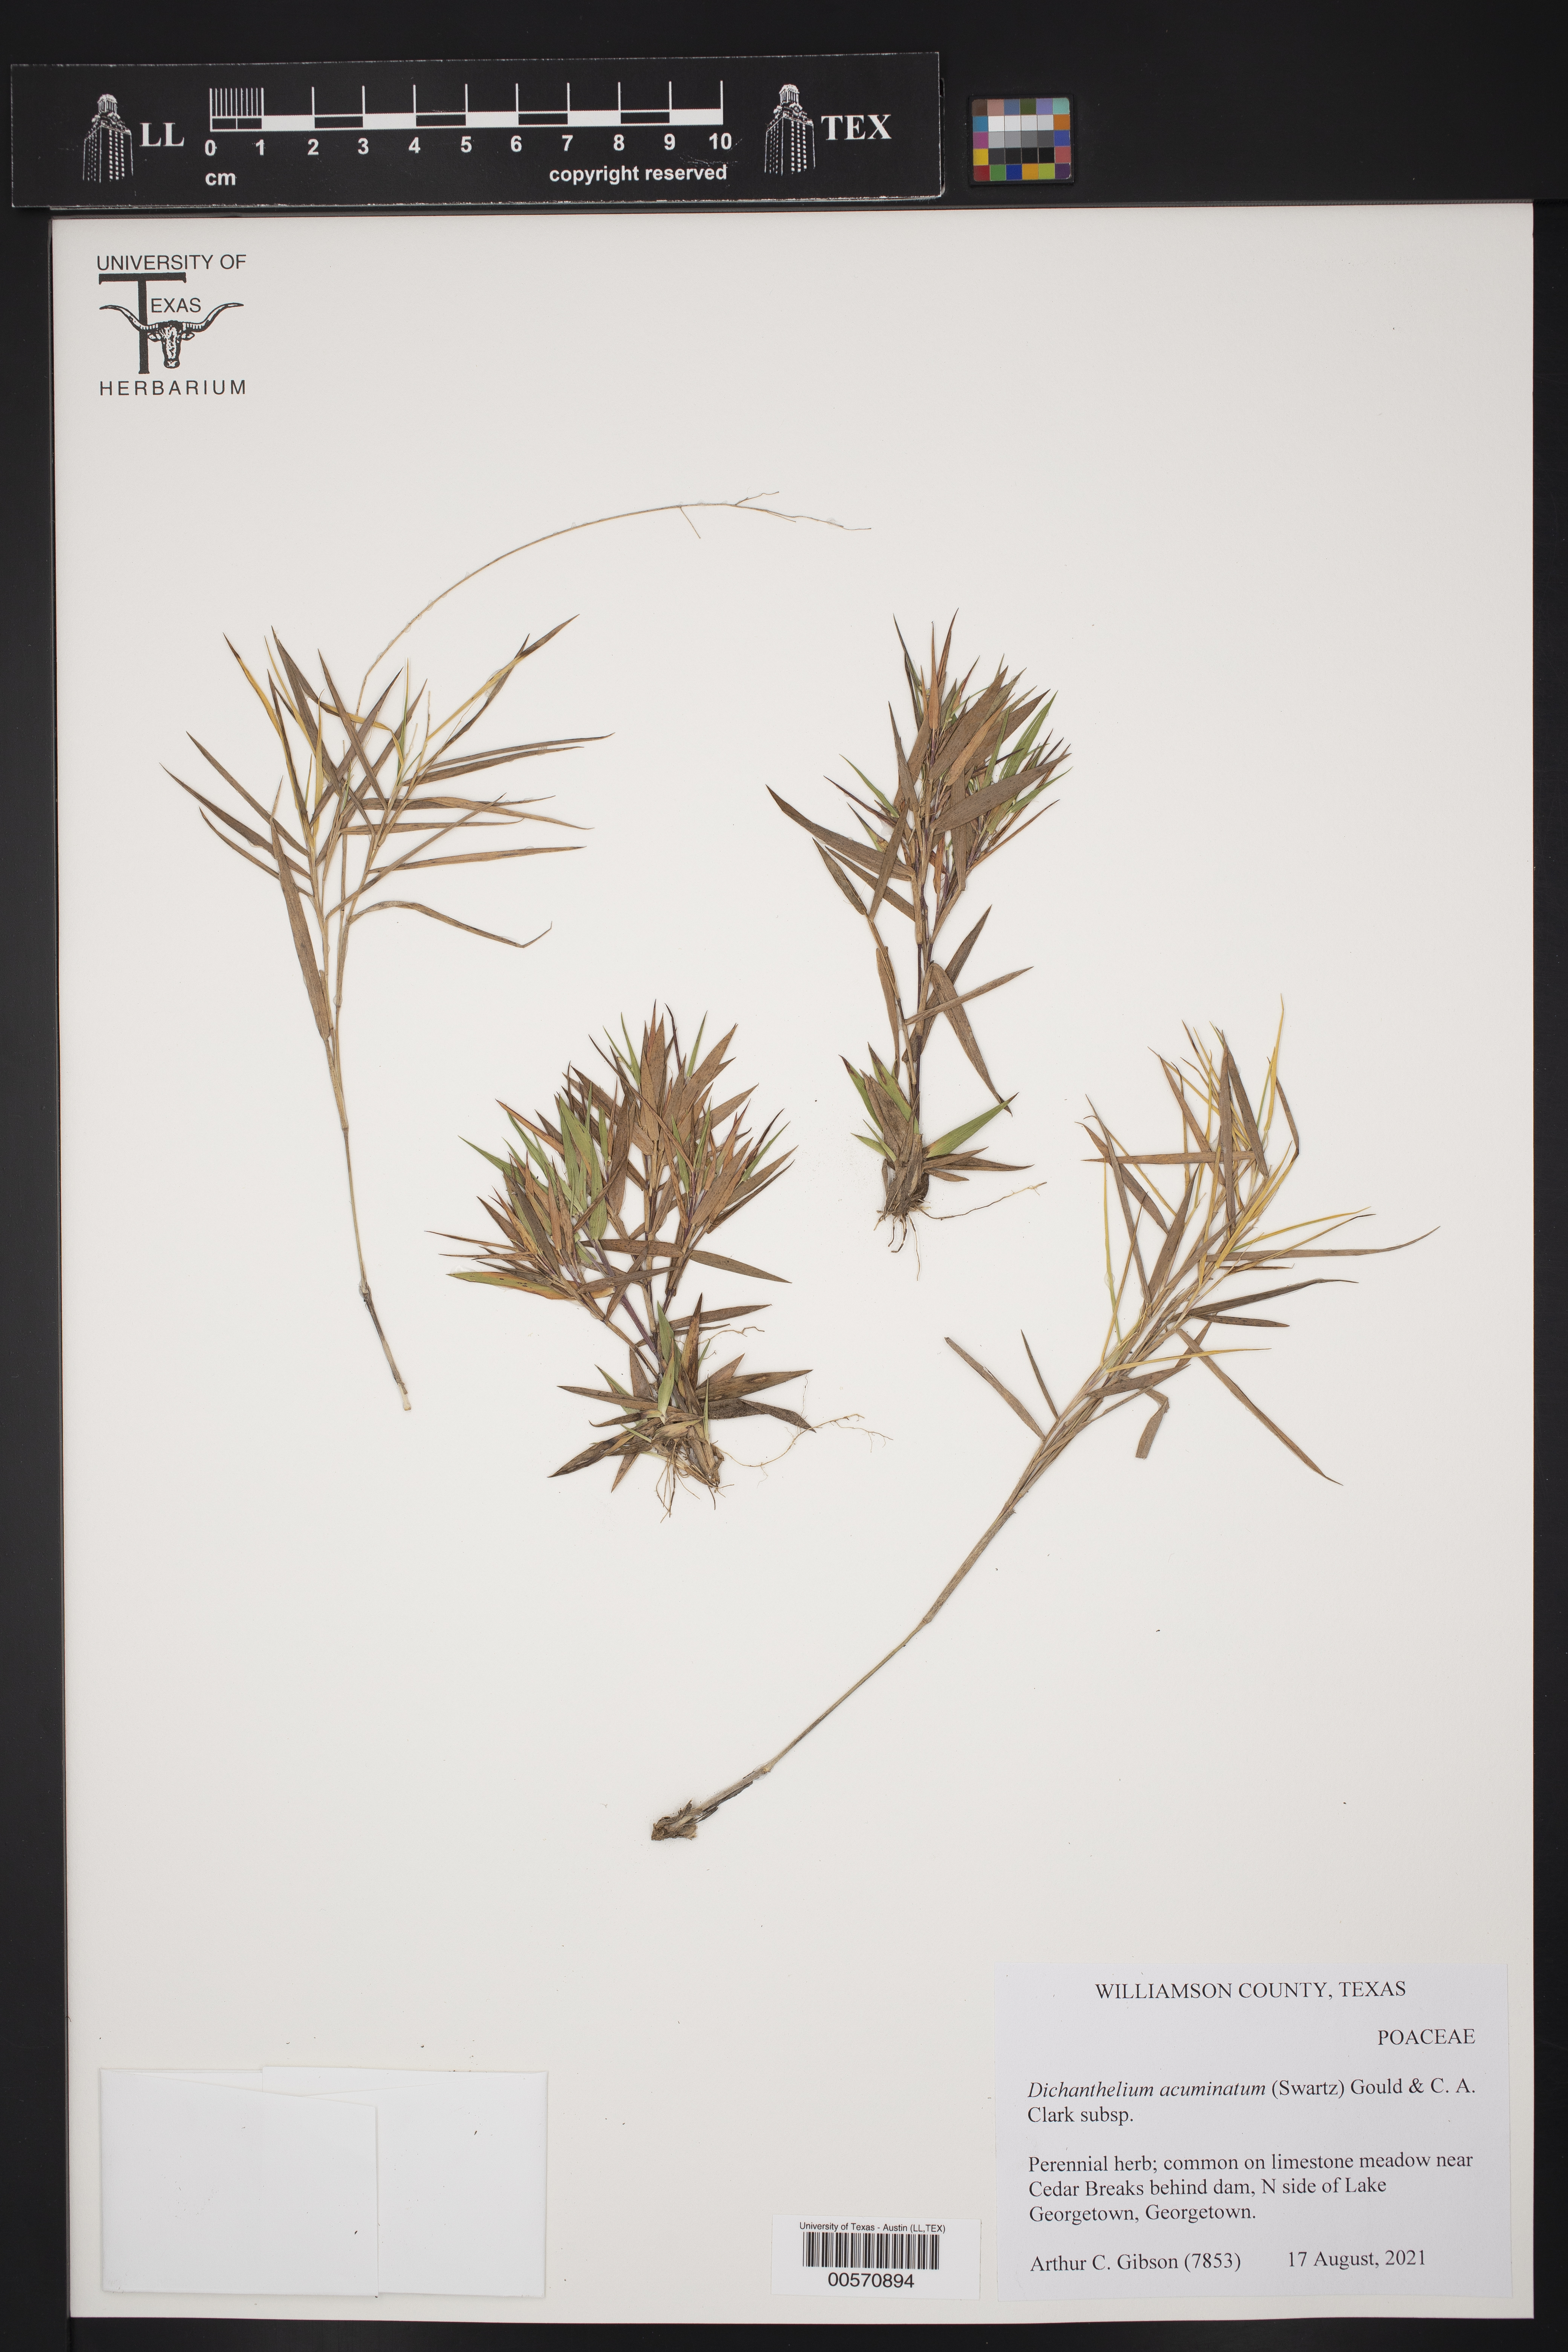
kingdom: Plantae
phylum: Tracheophyta
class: Liliopsida
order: Poales
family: Poaceae
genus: Dichanthelium
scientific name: Dichanthelium acuminatum
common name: Hairy panic grass
